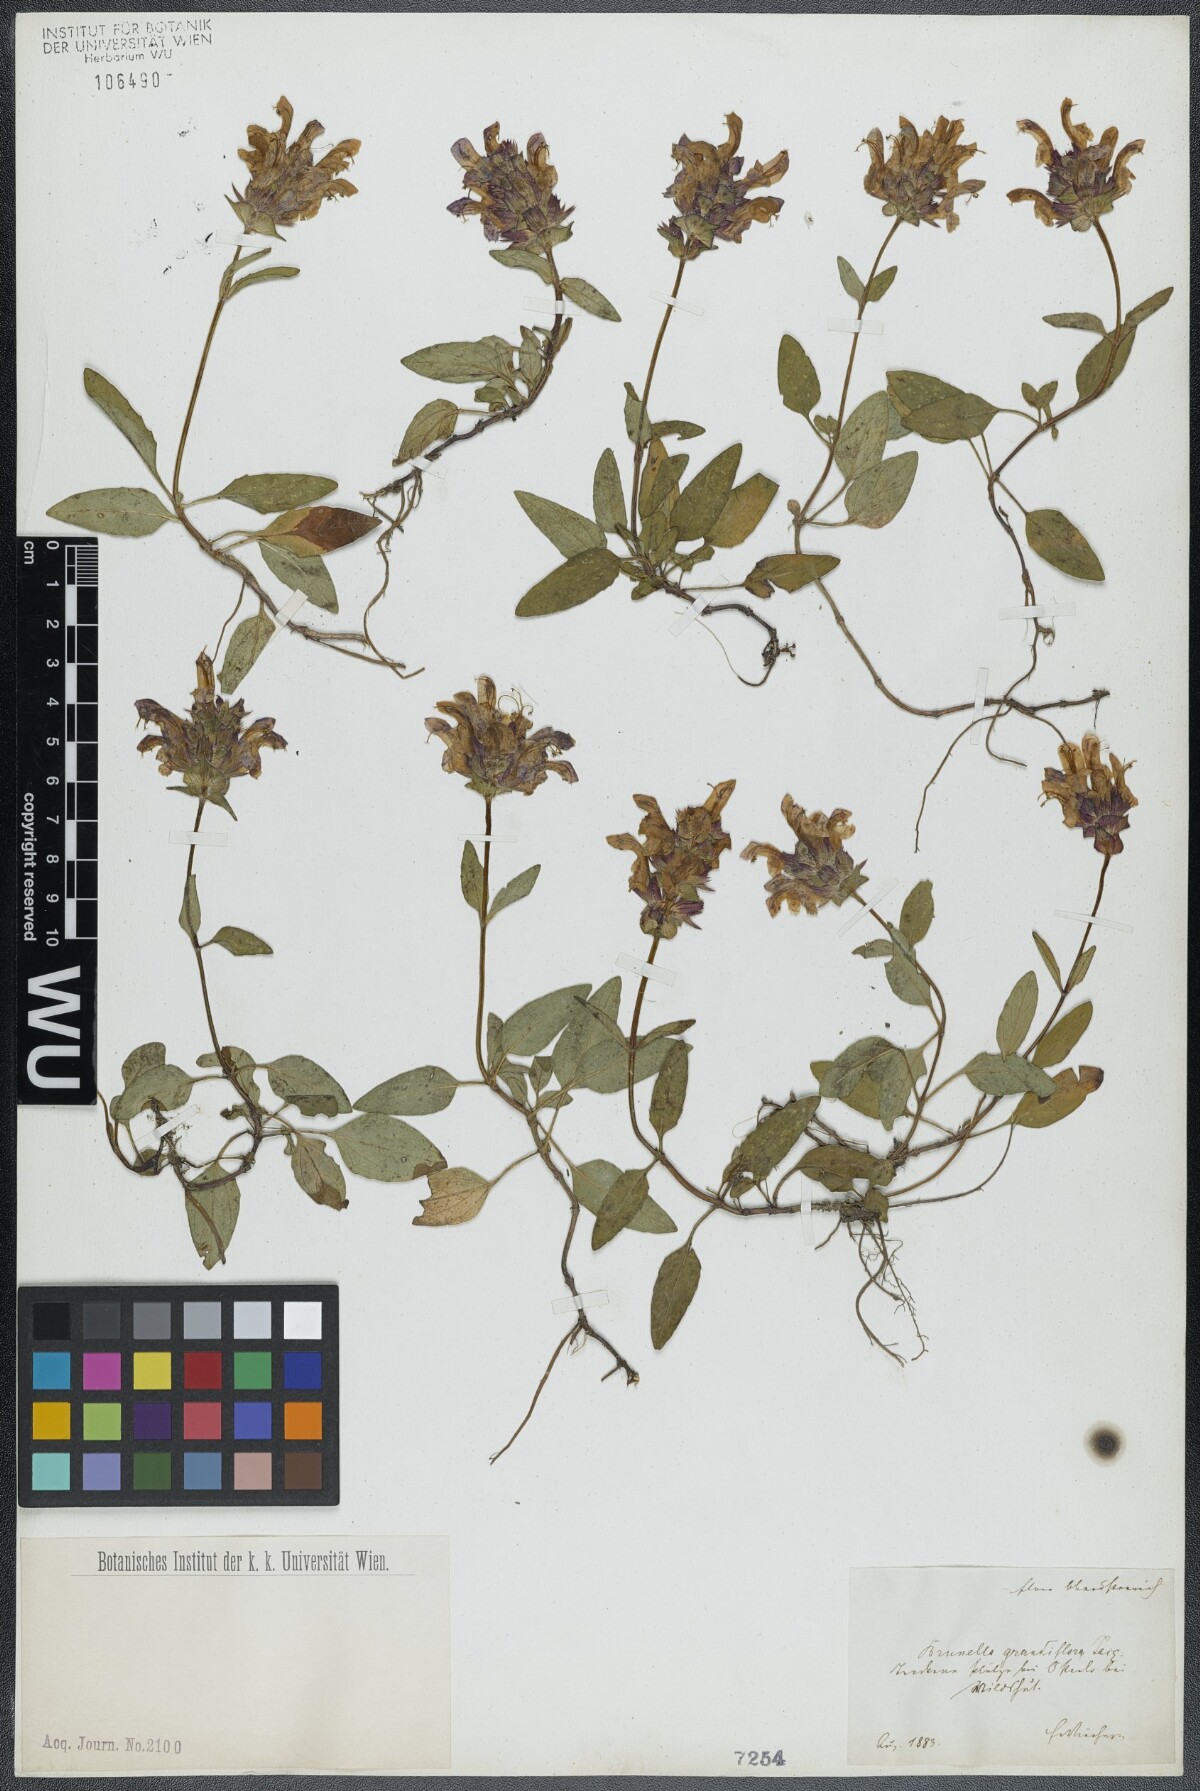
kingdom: Plantae
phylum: Tracheophyta
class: Magnoliopsida
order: Lamiales
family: Lamiaceae
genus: Prunella
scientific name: Prunella grandiflora
